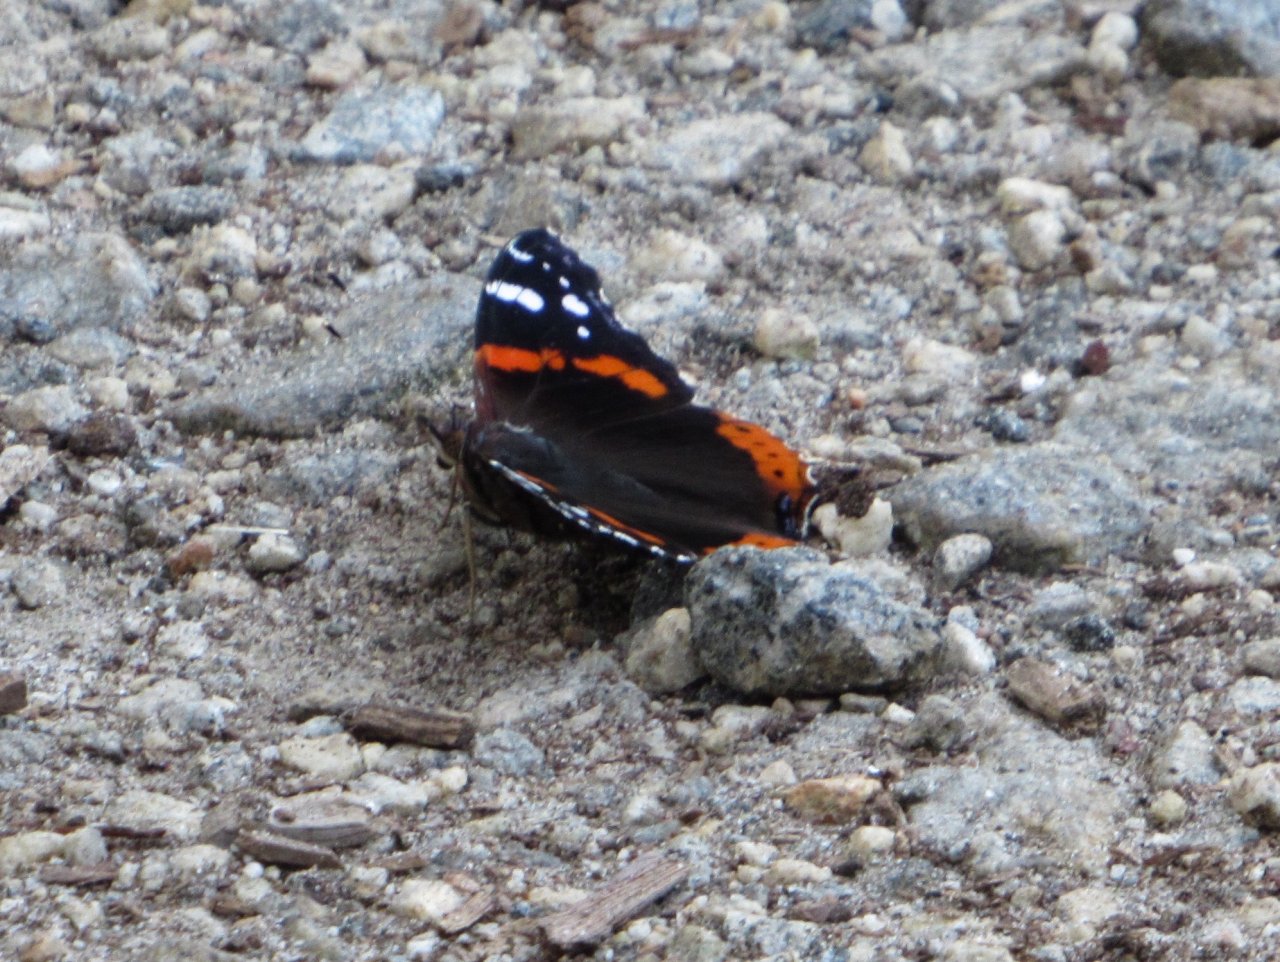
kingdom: Animalia
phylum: Arthropoda
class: Insecta
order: Lepidoptera
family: Nymphalidae
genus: Vanessa
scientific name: Vanessa atalanta
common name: Red Admiral
